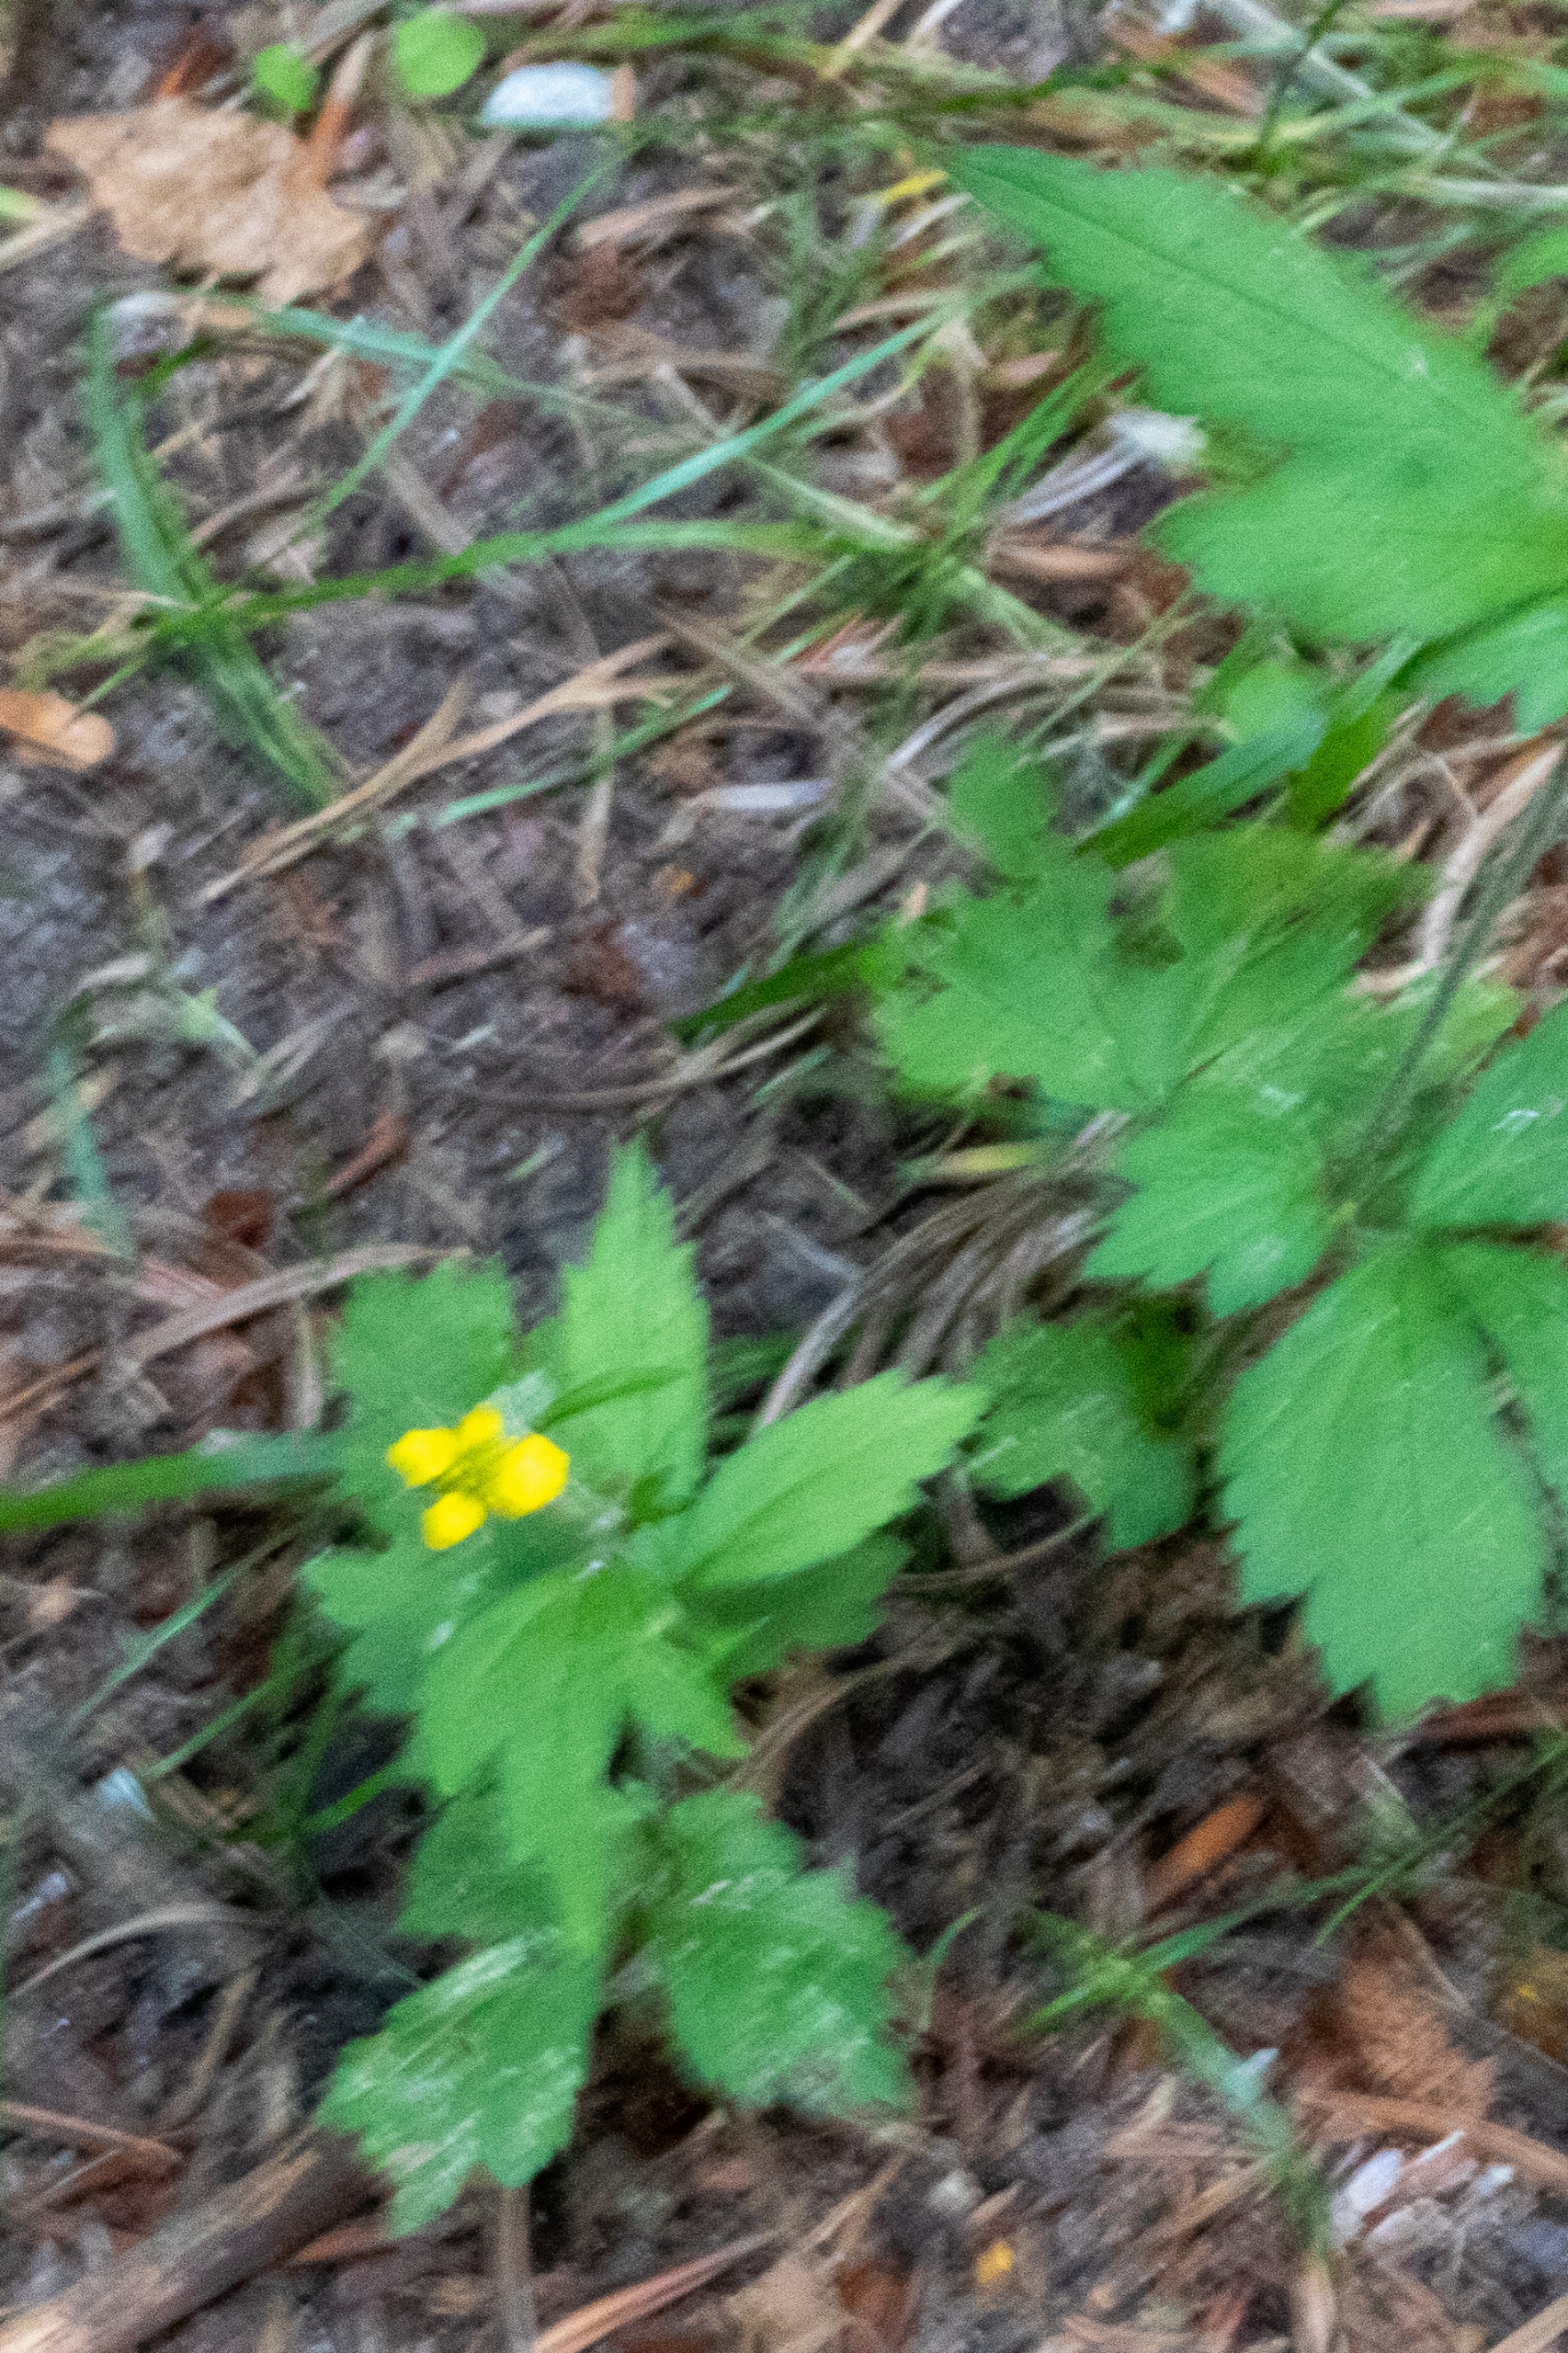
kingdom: Plantae
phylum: Tracheophyta
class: Magnoliopsida
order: Rosales
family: Rosaceae
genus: Geum
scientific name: Geum urbanum
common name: Feber-nellikerod
